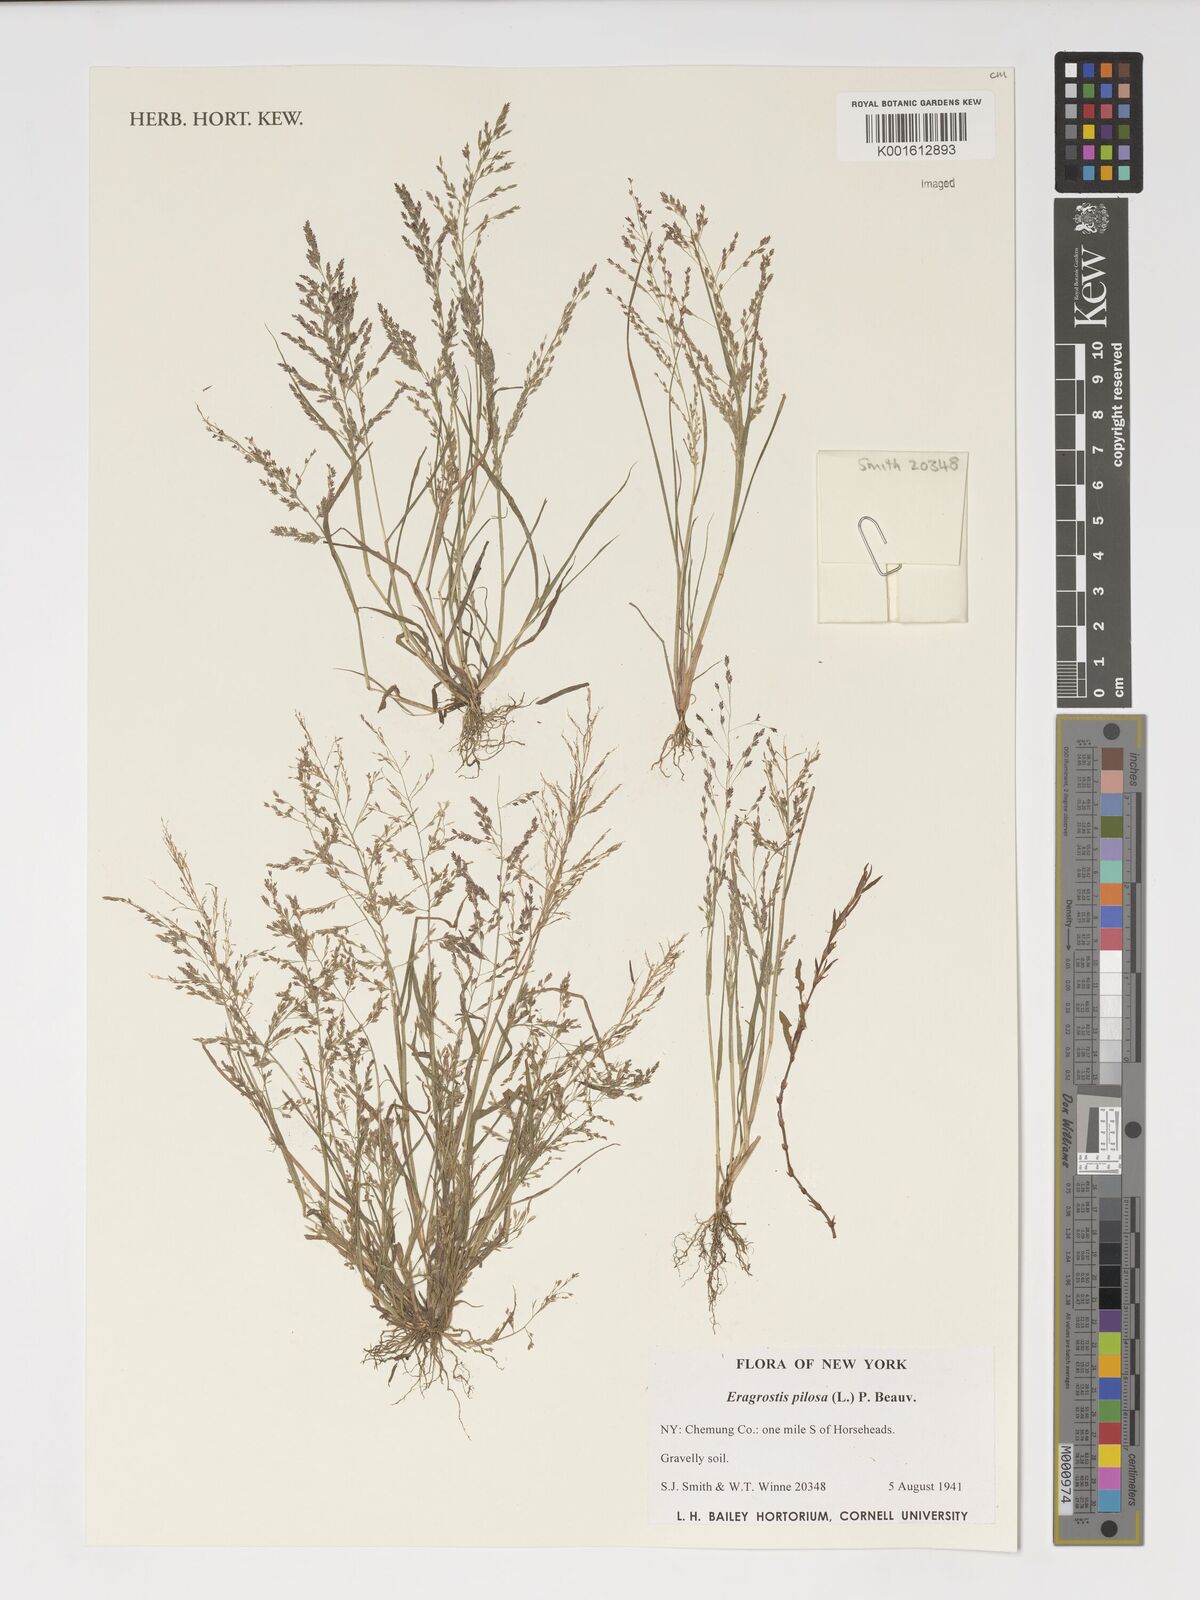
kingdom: Plantae
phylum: Tracheophyta
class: Liliopsida
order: Poales
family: Poaceae
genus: Eragrostis
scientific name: Eragrostis pilosa
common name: Indian lovegrass
